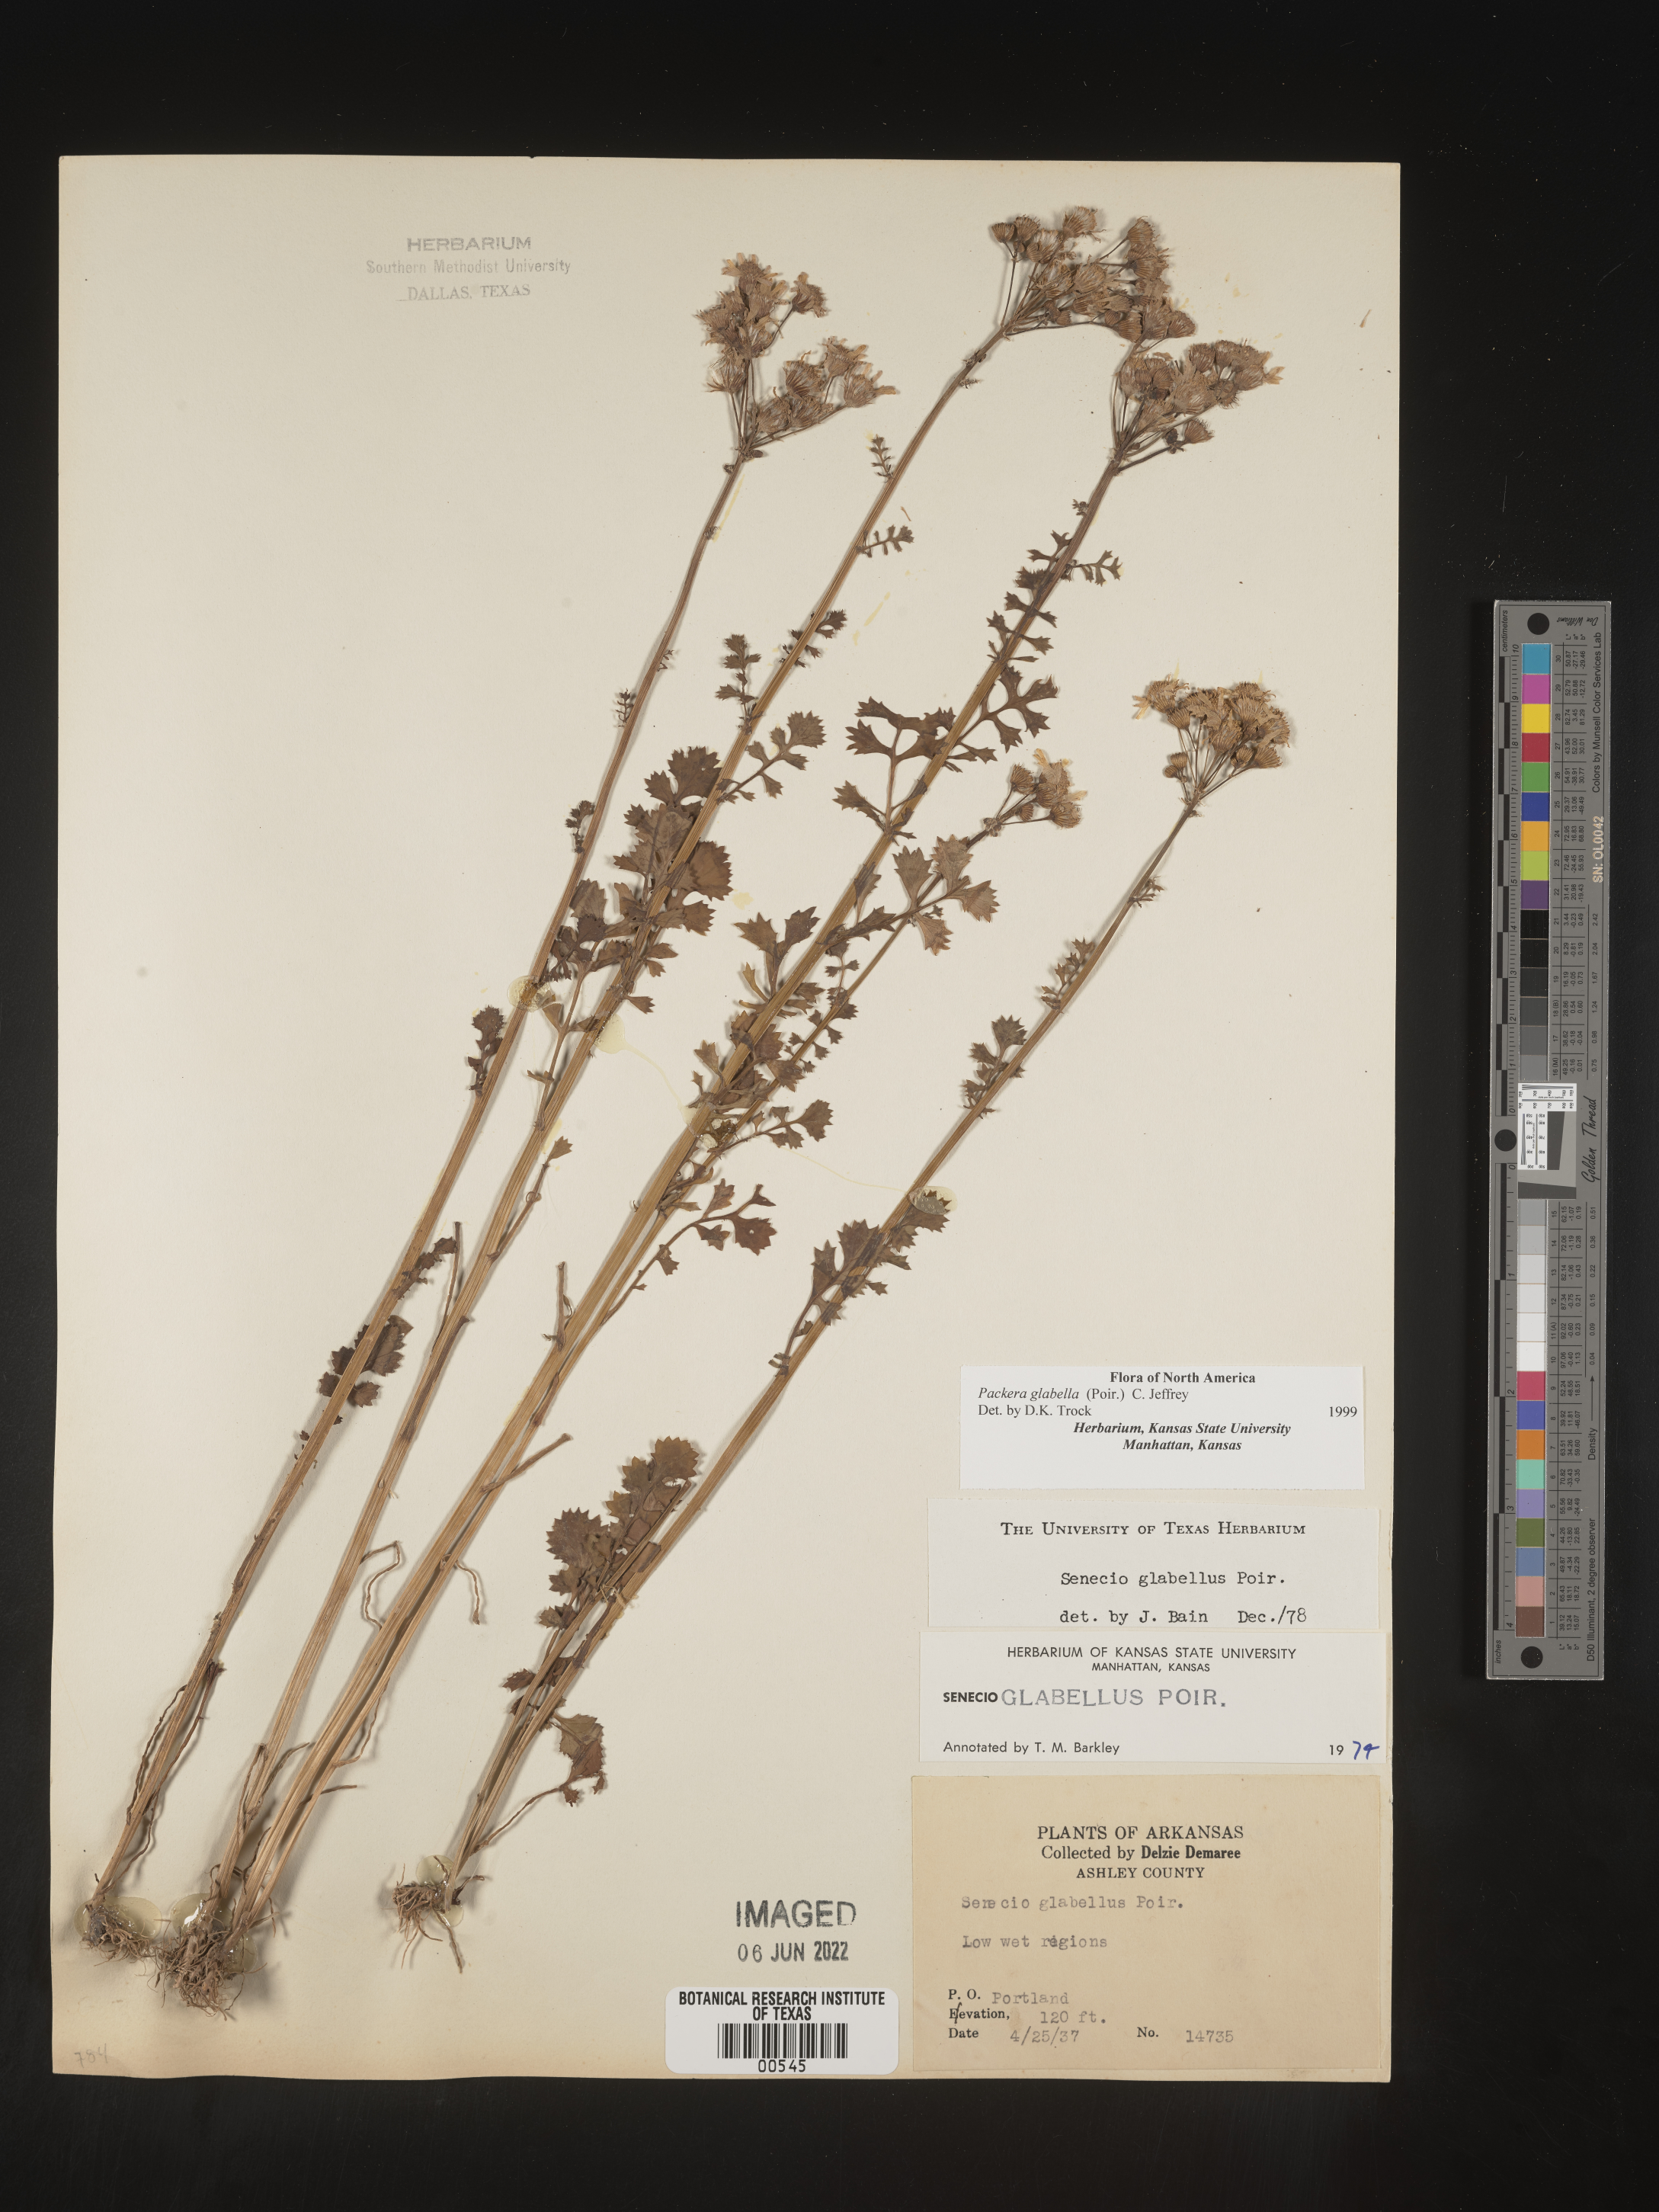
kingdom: Plantae
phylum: Tracheophyta
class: Magnoliopsida
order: Asterales
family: Asteraceae
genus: Packera
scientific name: Packera glabella
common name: Butterweed
